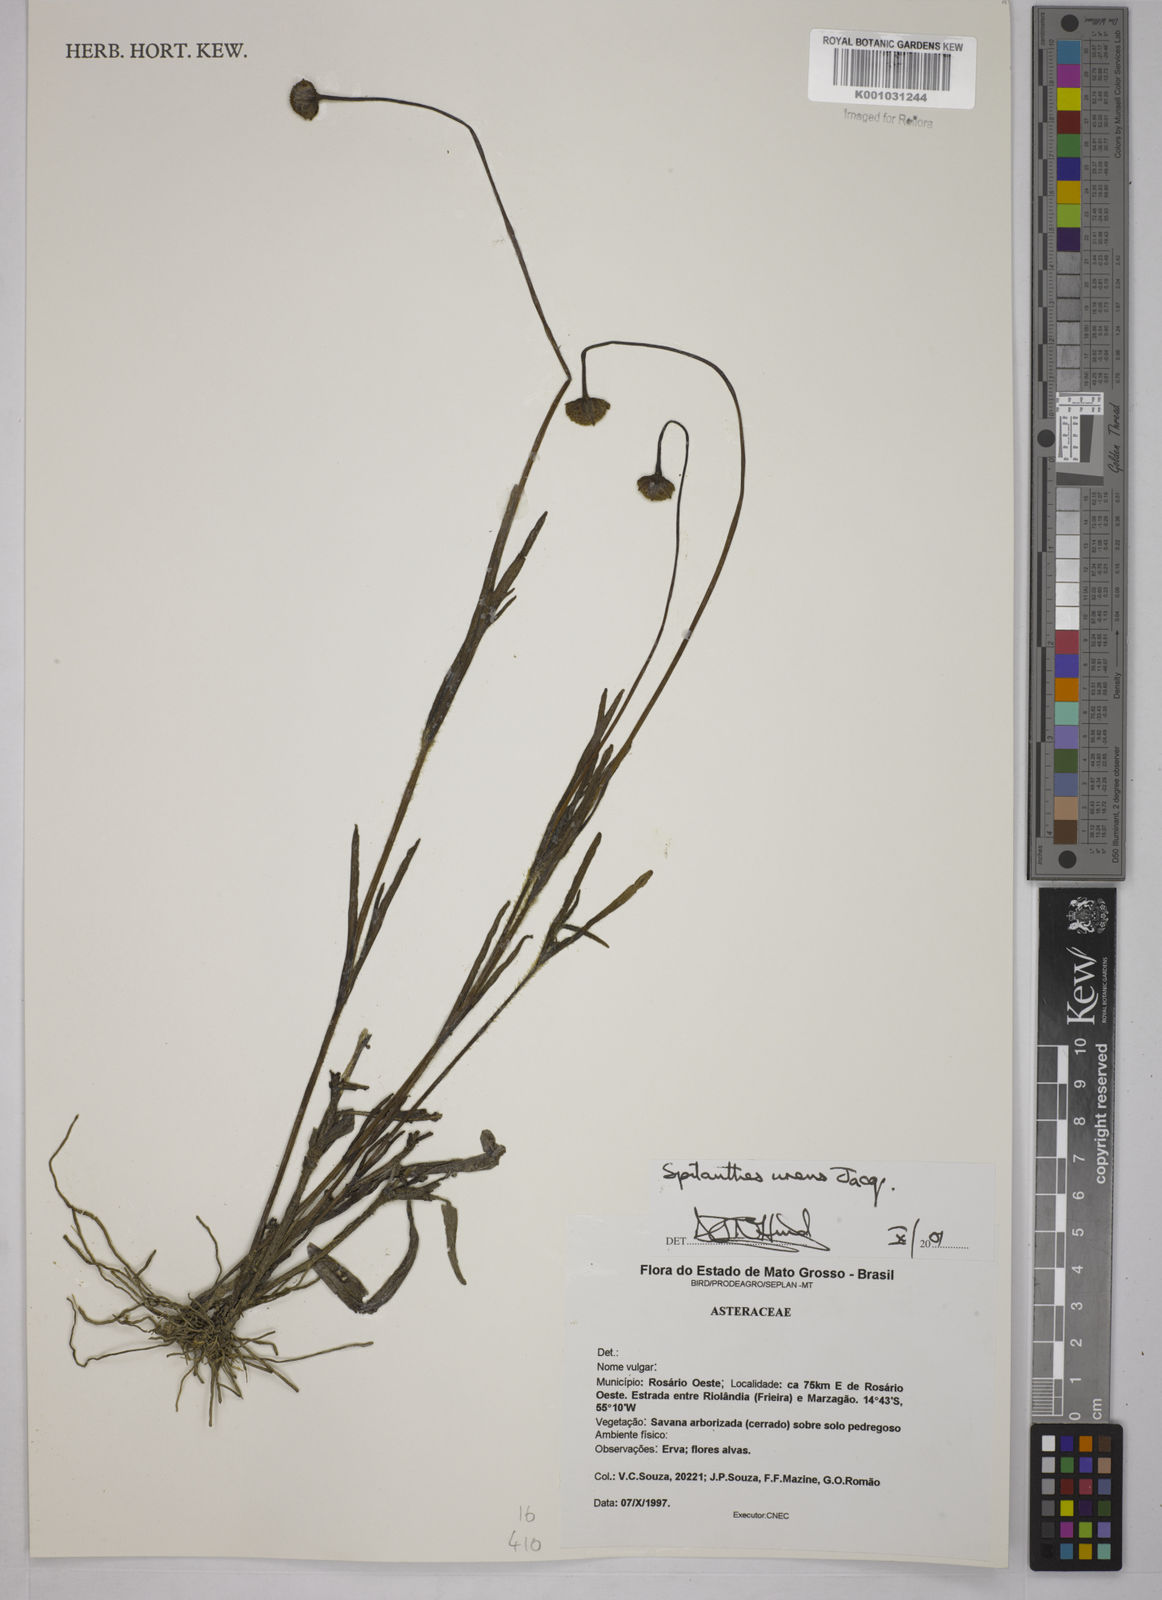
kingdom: Plantae
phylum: Tracheophyta
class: Magnoliopsida
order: Asterales
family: Asteraceae
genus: Spilanthes
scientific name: Spilanthes urens
